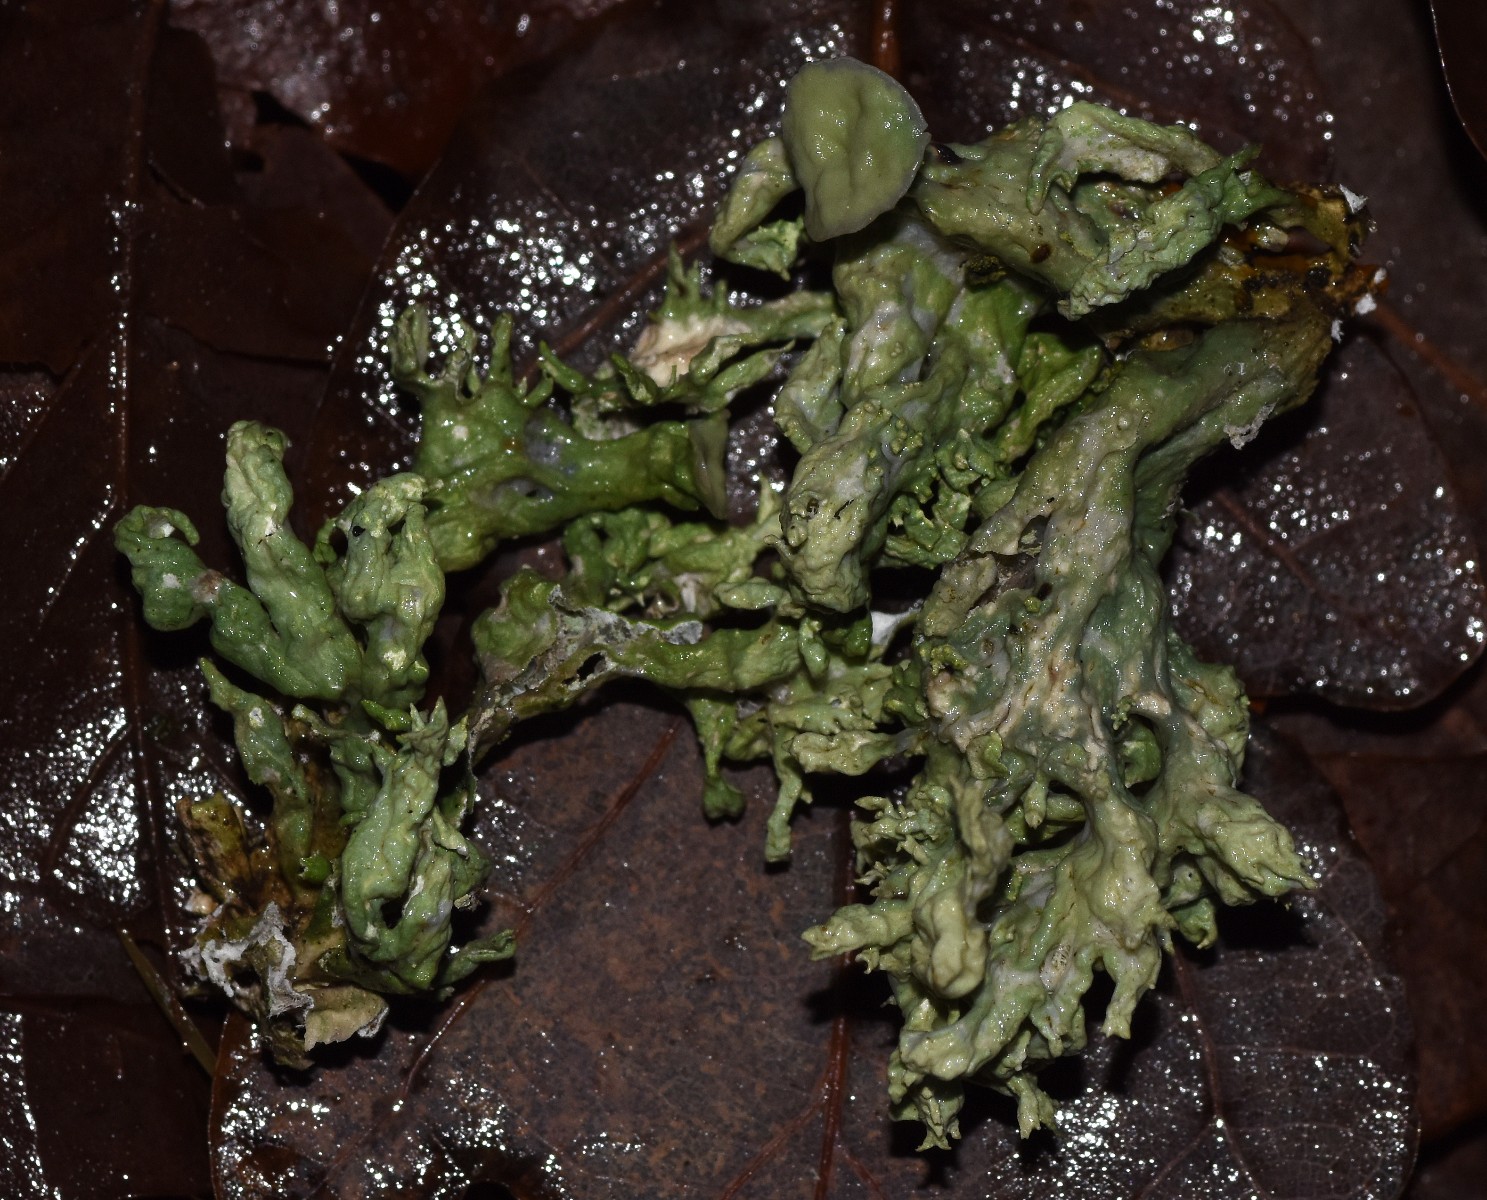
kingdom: Fungi
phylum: Ascomycota
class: Lecanoromycetes
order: Lecanorales
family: Ramalinaceae
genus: Ramalina
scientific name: Ramalina fastigiata
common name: tue-grenlav
